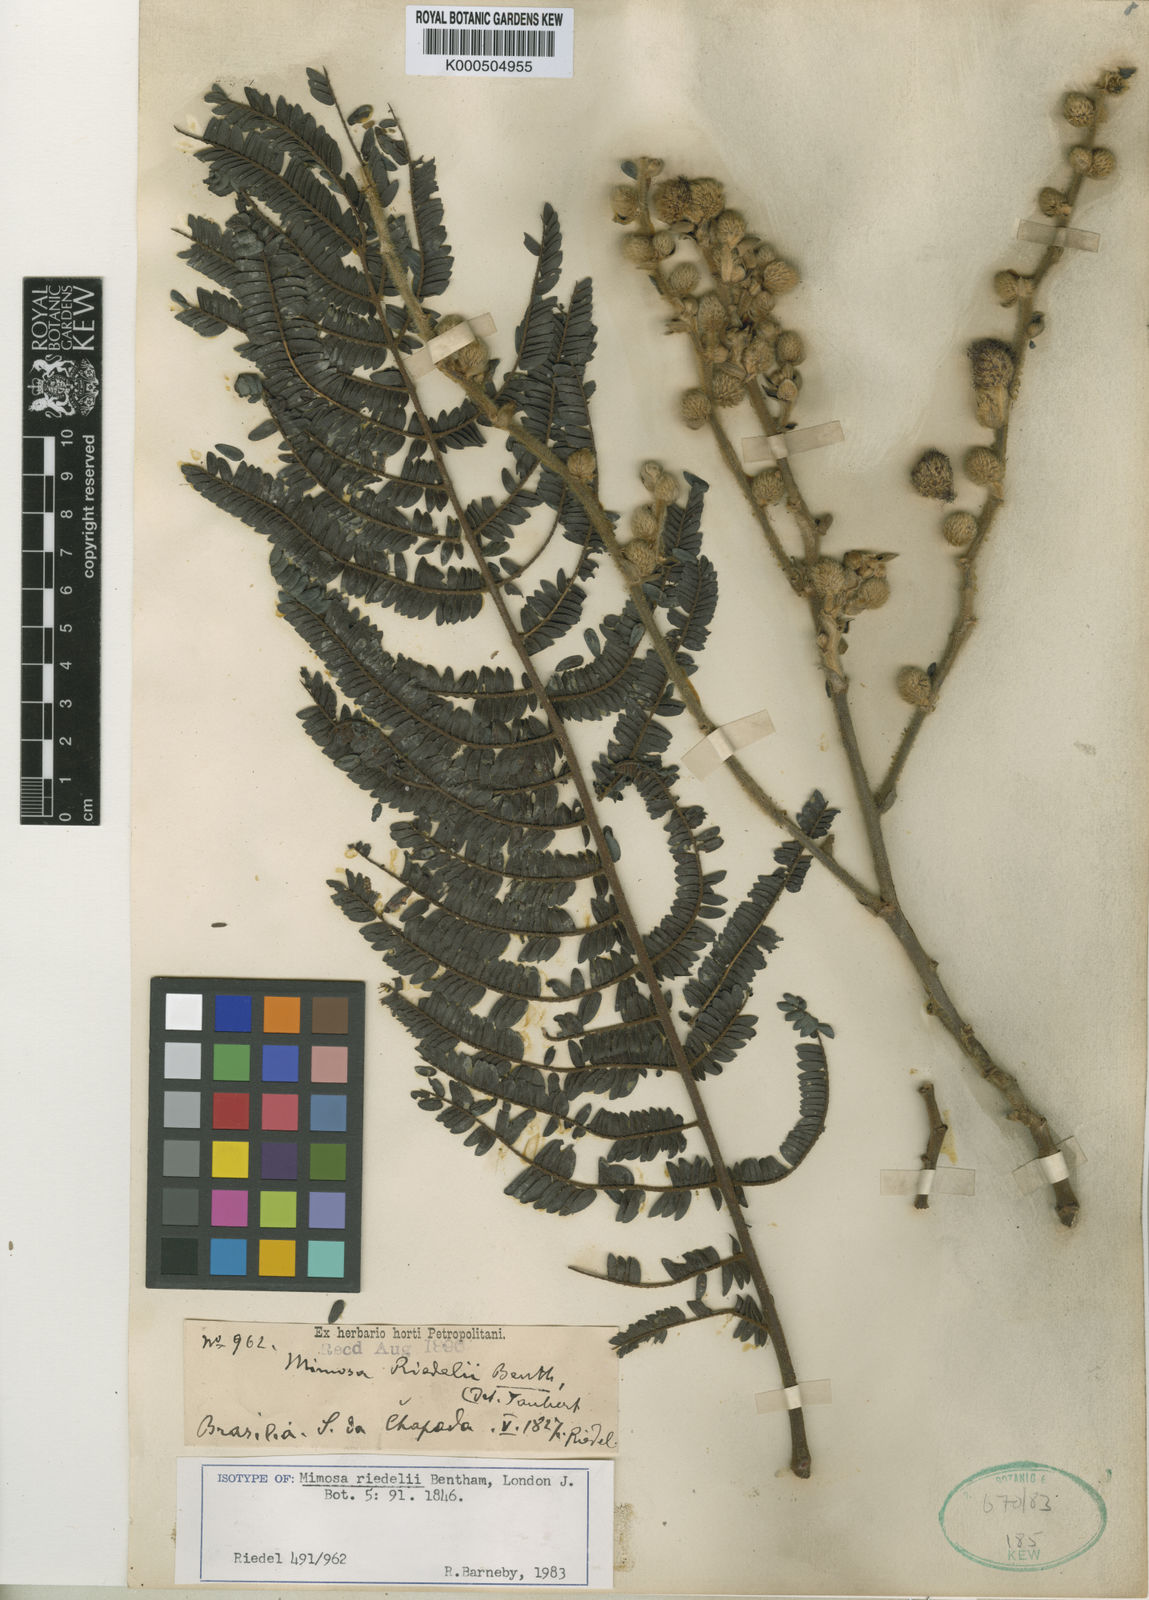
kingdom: Plantae
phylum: Tracheophyta
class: Magnoliopsida
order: Fabales
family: Fabaceae
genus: Mimosa
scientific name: Mimosa riedelii
